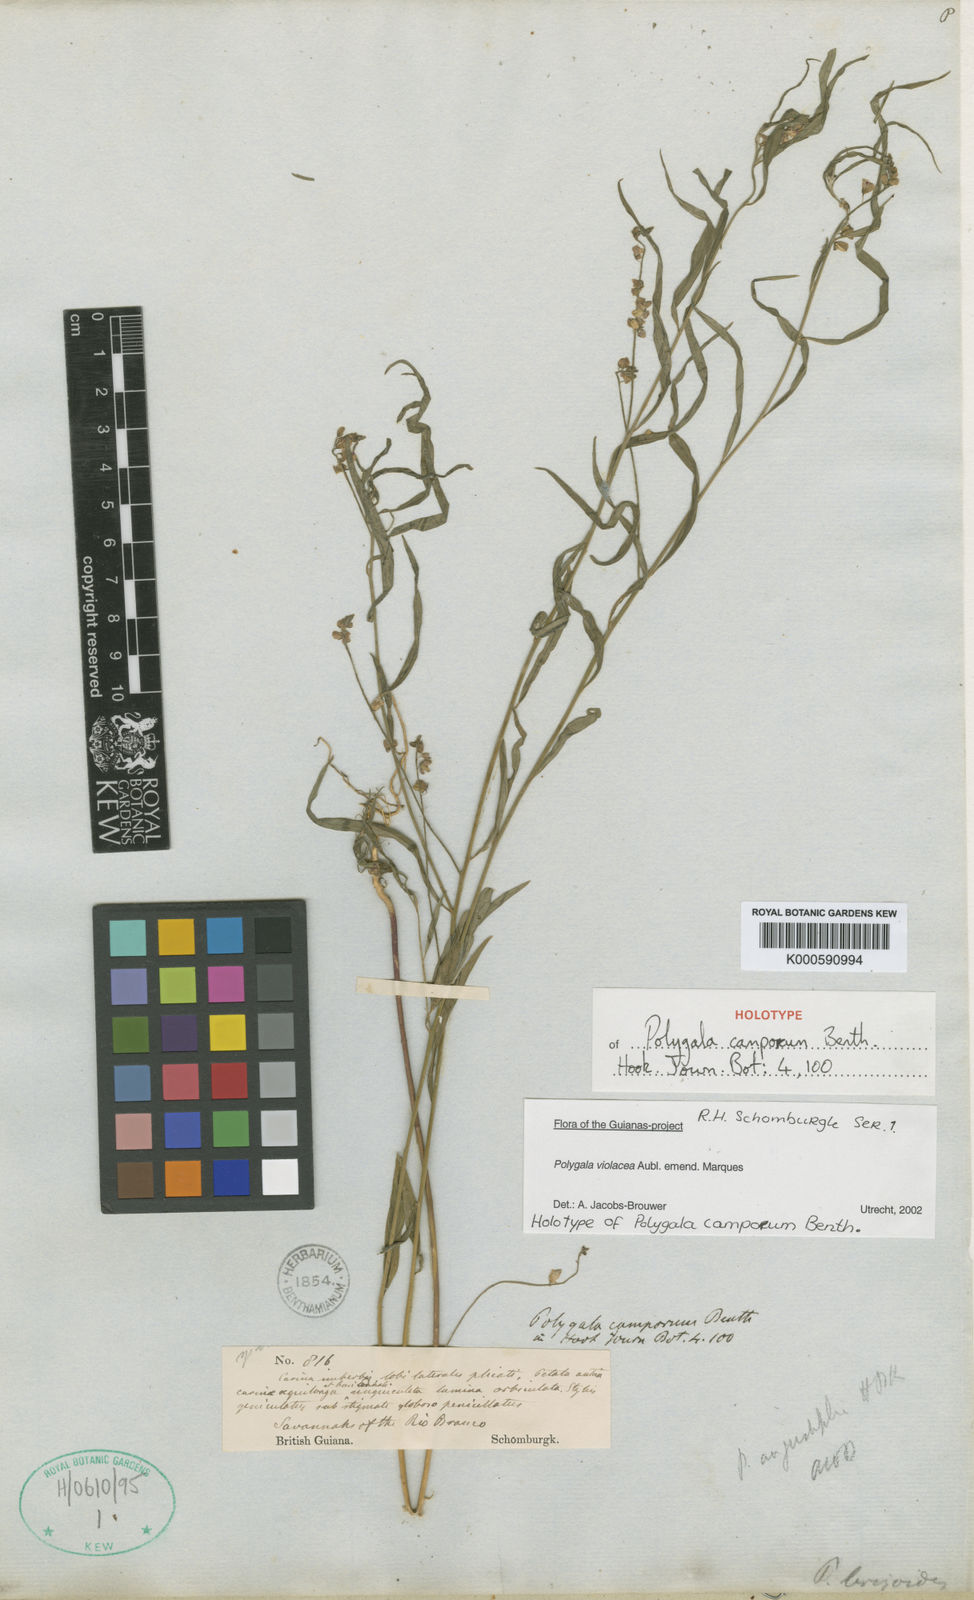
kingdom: Plantae
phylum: Tracheophyta
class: Magnoliopsida
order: Fabales
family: Polygalaceae
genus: Asemeia
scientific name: Asemeia violacea
